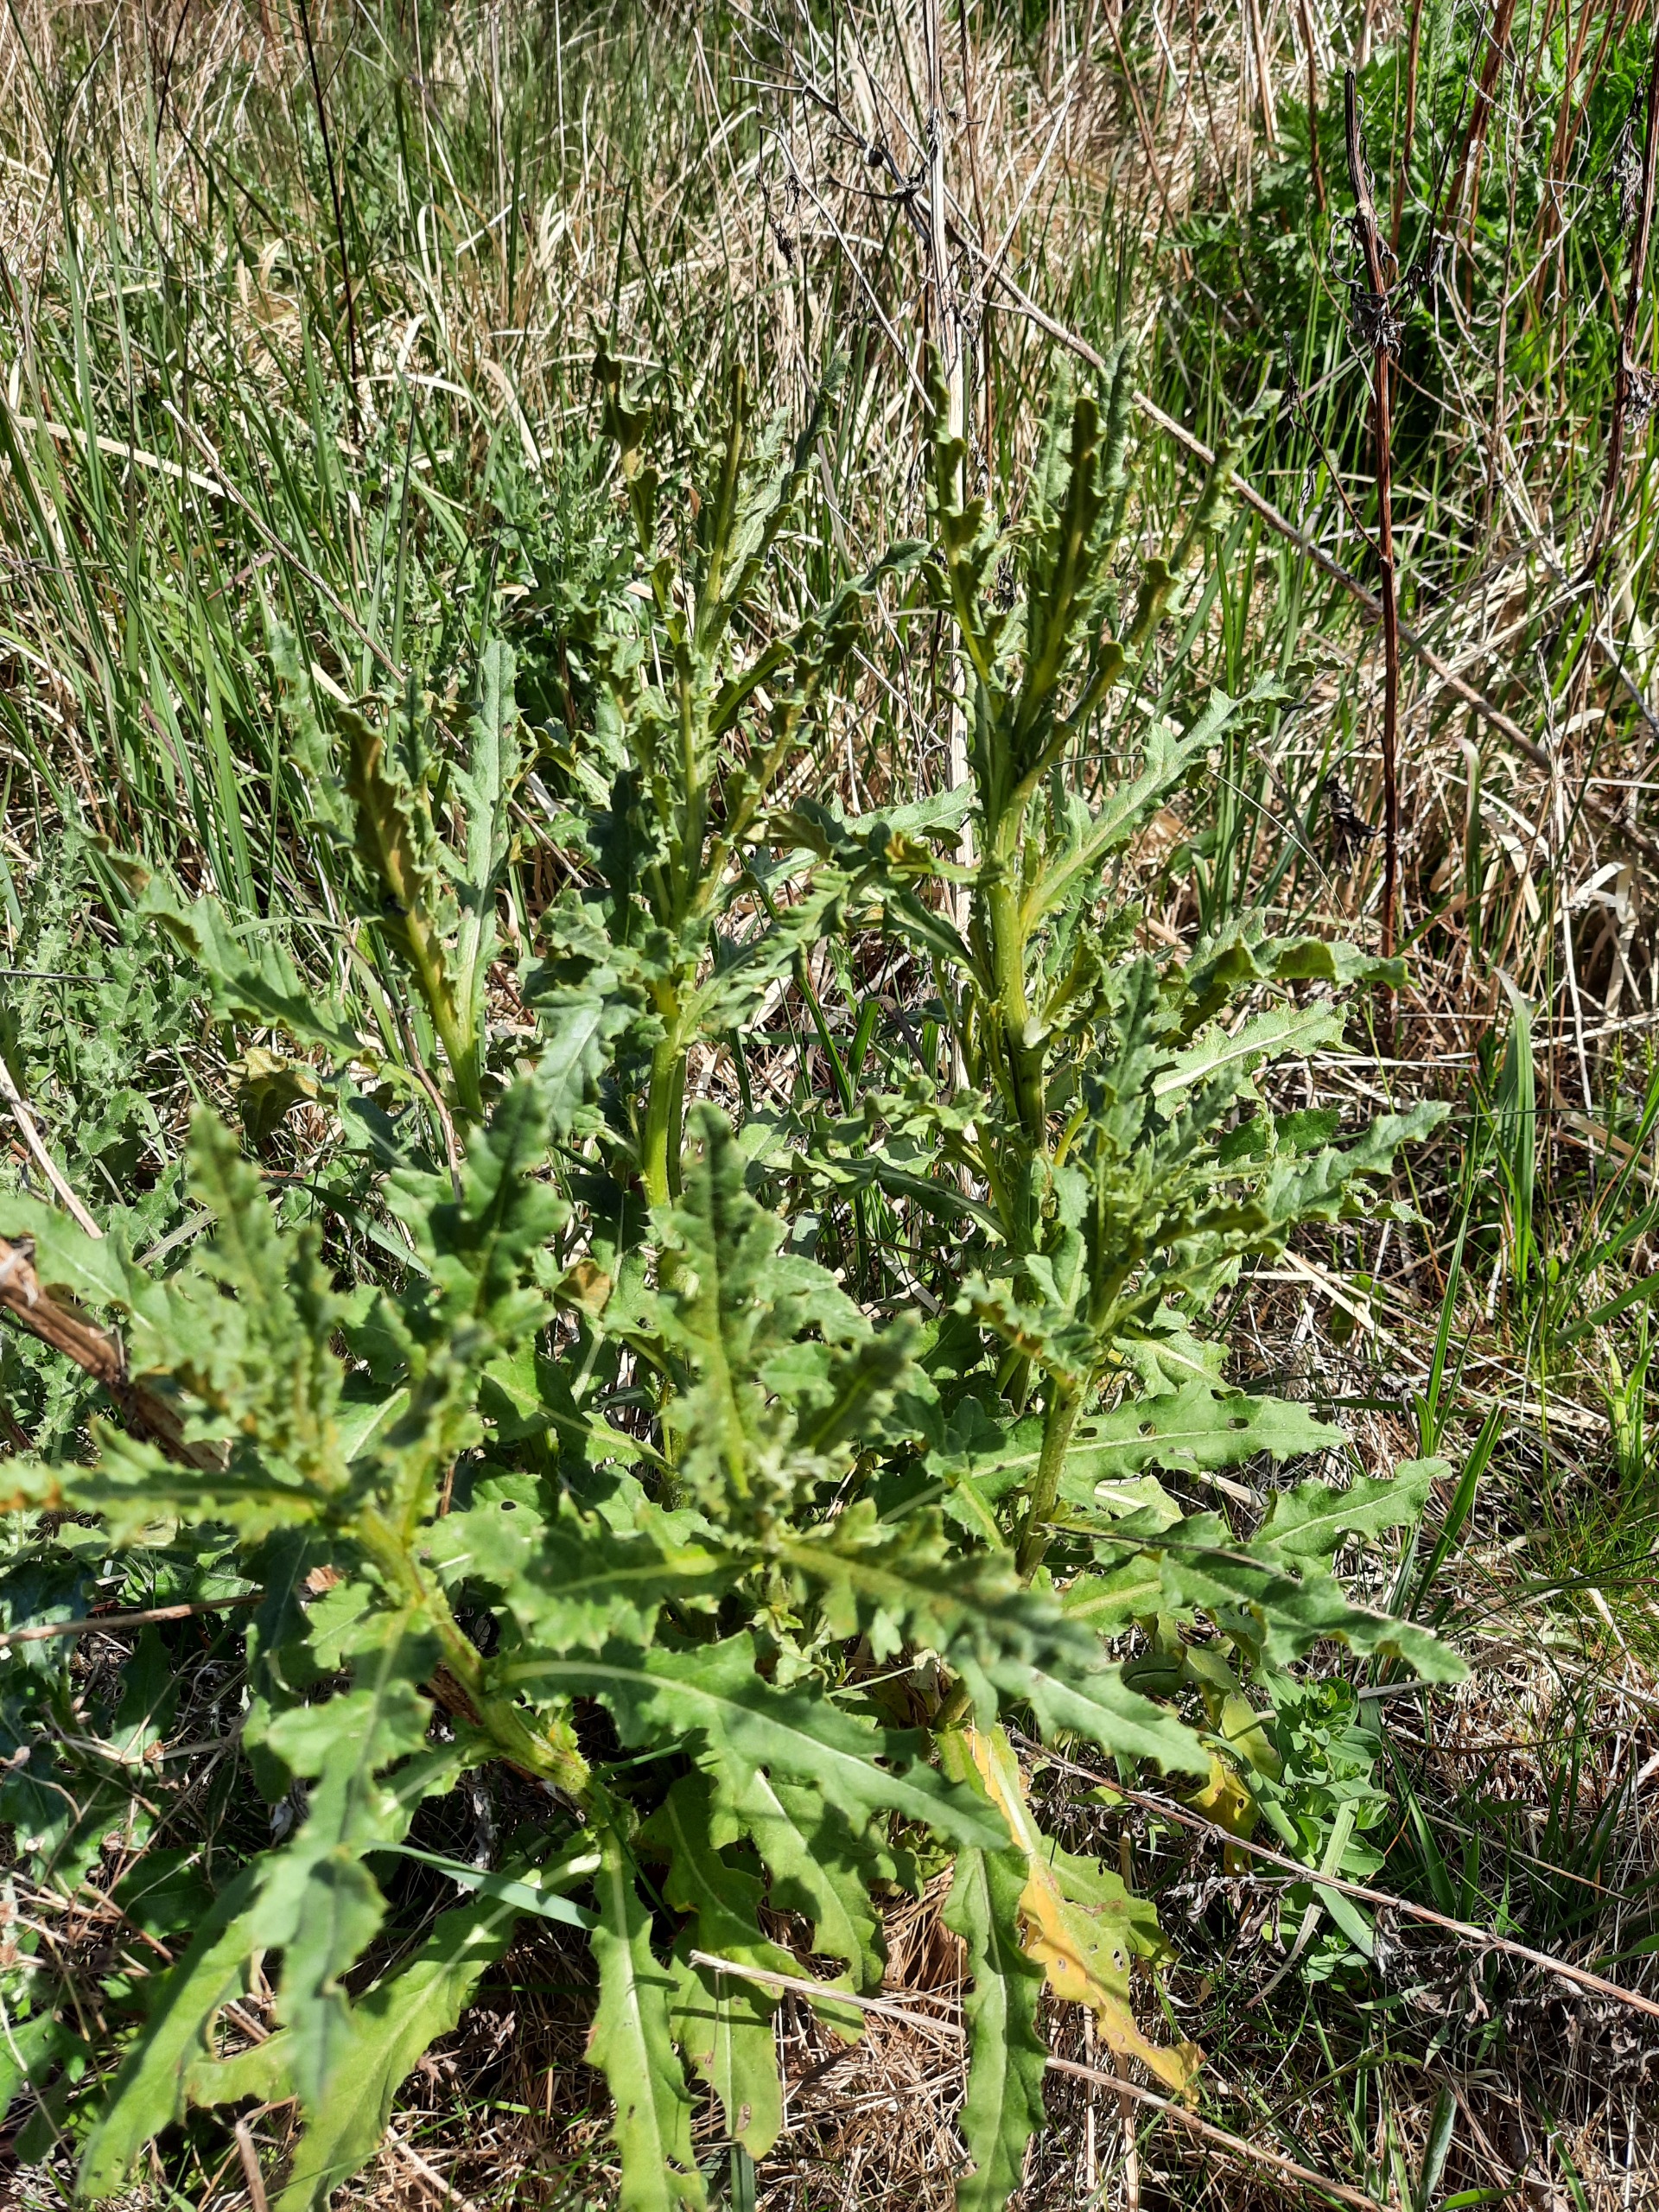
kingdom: Plantae
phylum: Tracheophyta
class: Magnoliopsida
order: Asterales
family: Asteraceae
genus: Cirsium
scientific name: Cirsium arvense
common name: Ager-tidsel
